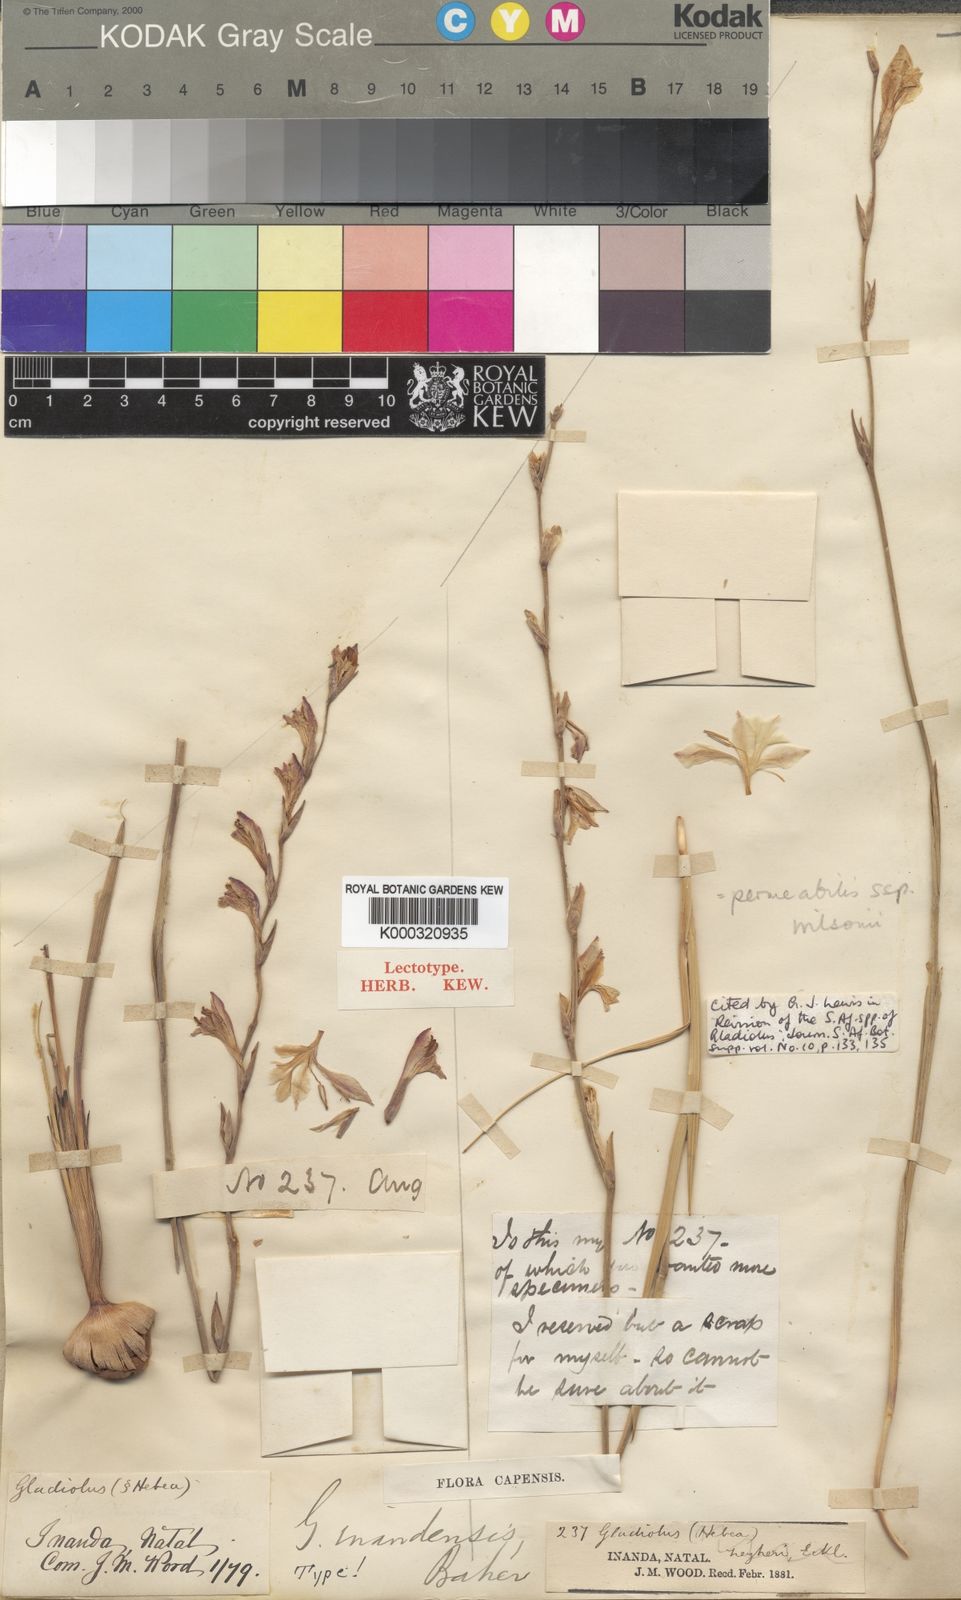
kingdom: Plantae
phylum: Tracheophyta
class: Liliopsida
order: Asparagales
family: Iridaceae
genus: Gladiolus
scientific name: Gladiolus inandensis
